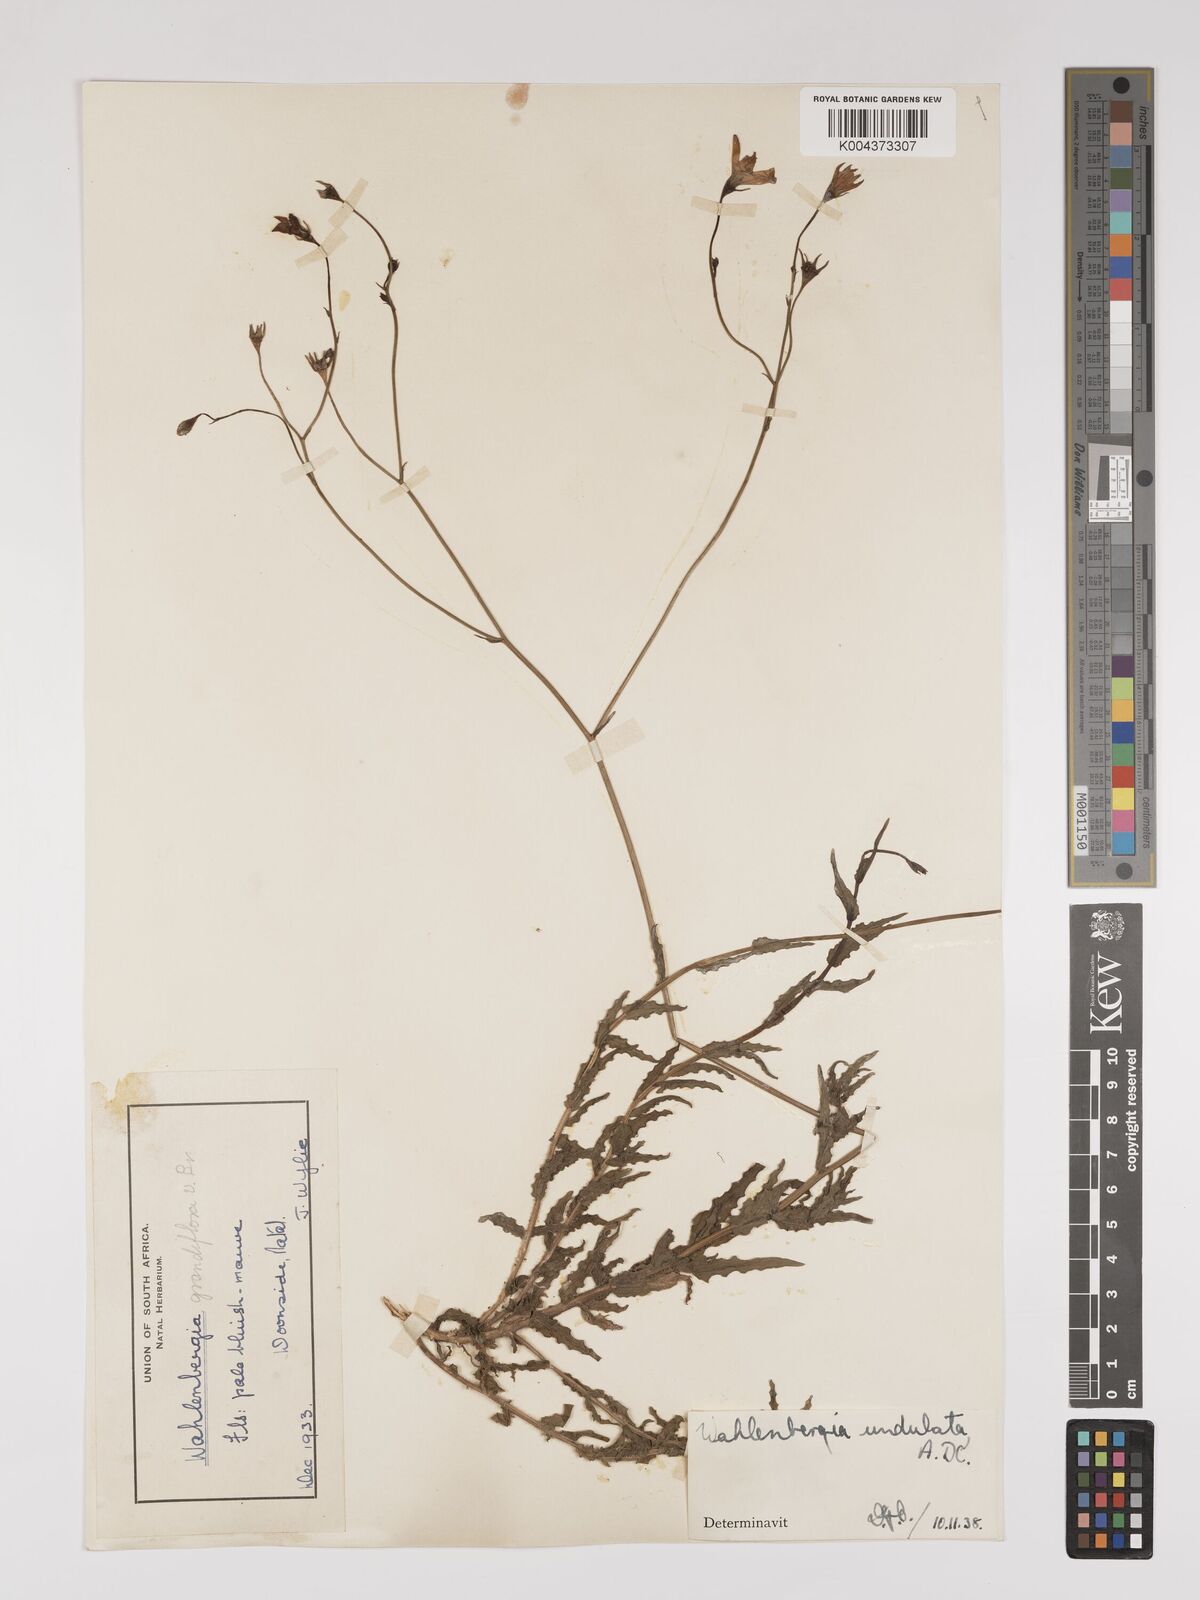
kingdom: Plantae
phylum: Tracheophyta
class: Magnoliopsida
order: Asterales
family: Campanulaceae
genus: Wahlenbergia
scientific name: Wahlenbergia undulata
